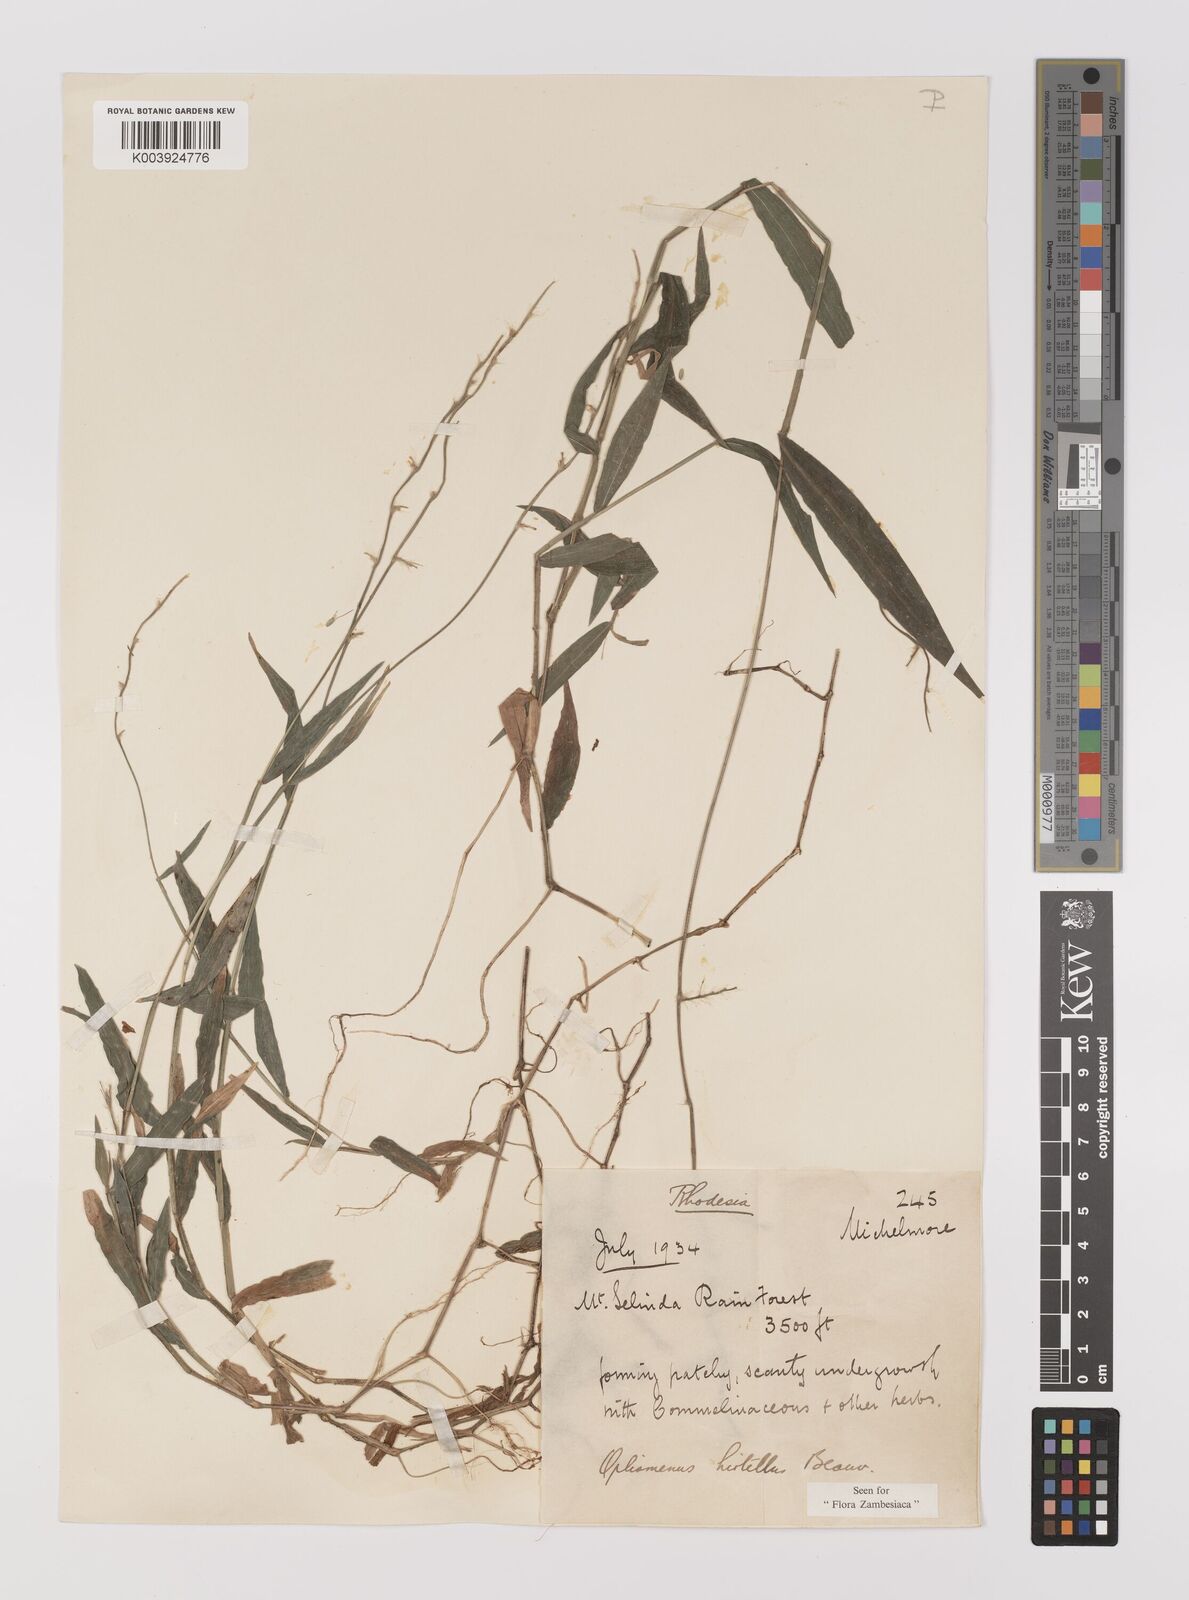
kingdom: Plantae
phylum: Tracheophyta
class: Liliopsida
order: Poales
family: Poaceae
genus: Oplismenus
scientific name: Oplismenus hirtellus
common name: Basketgrass
